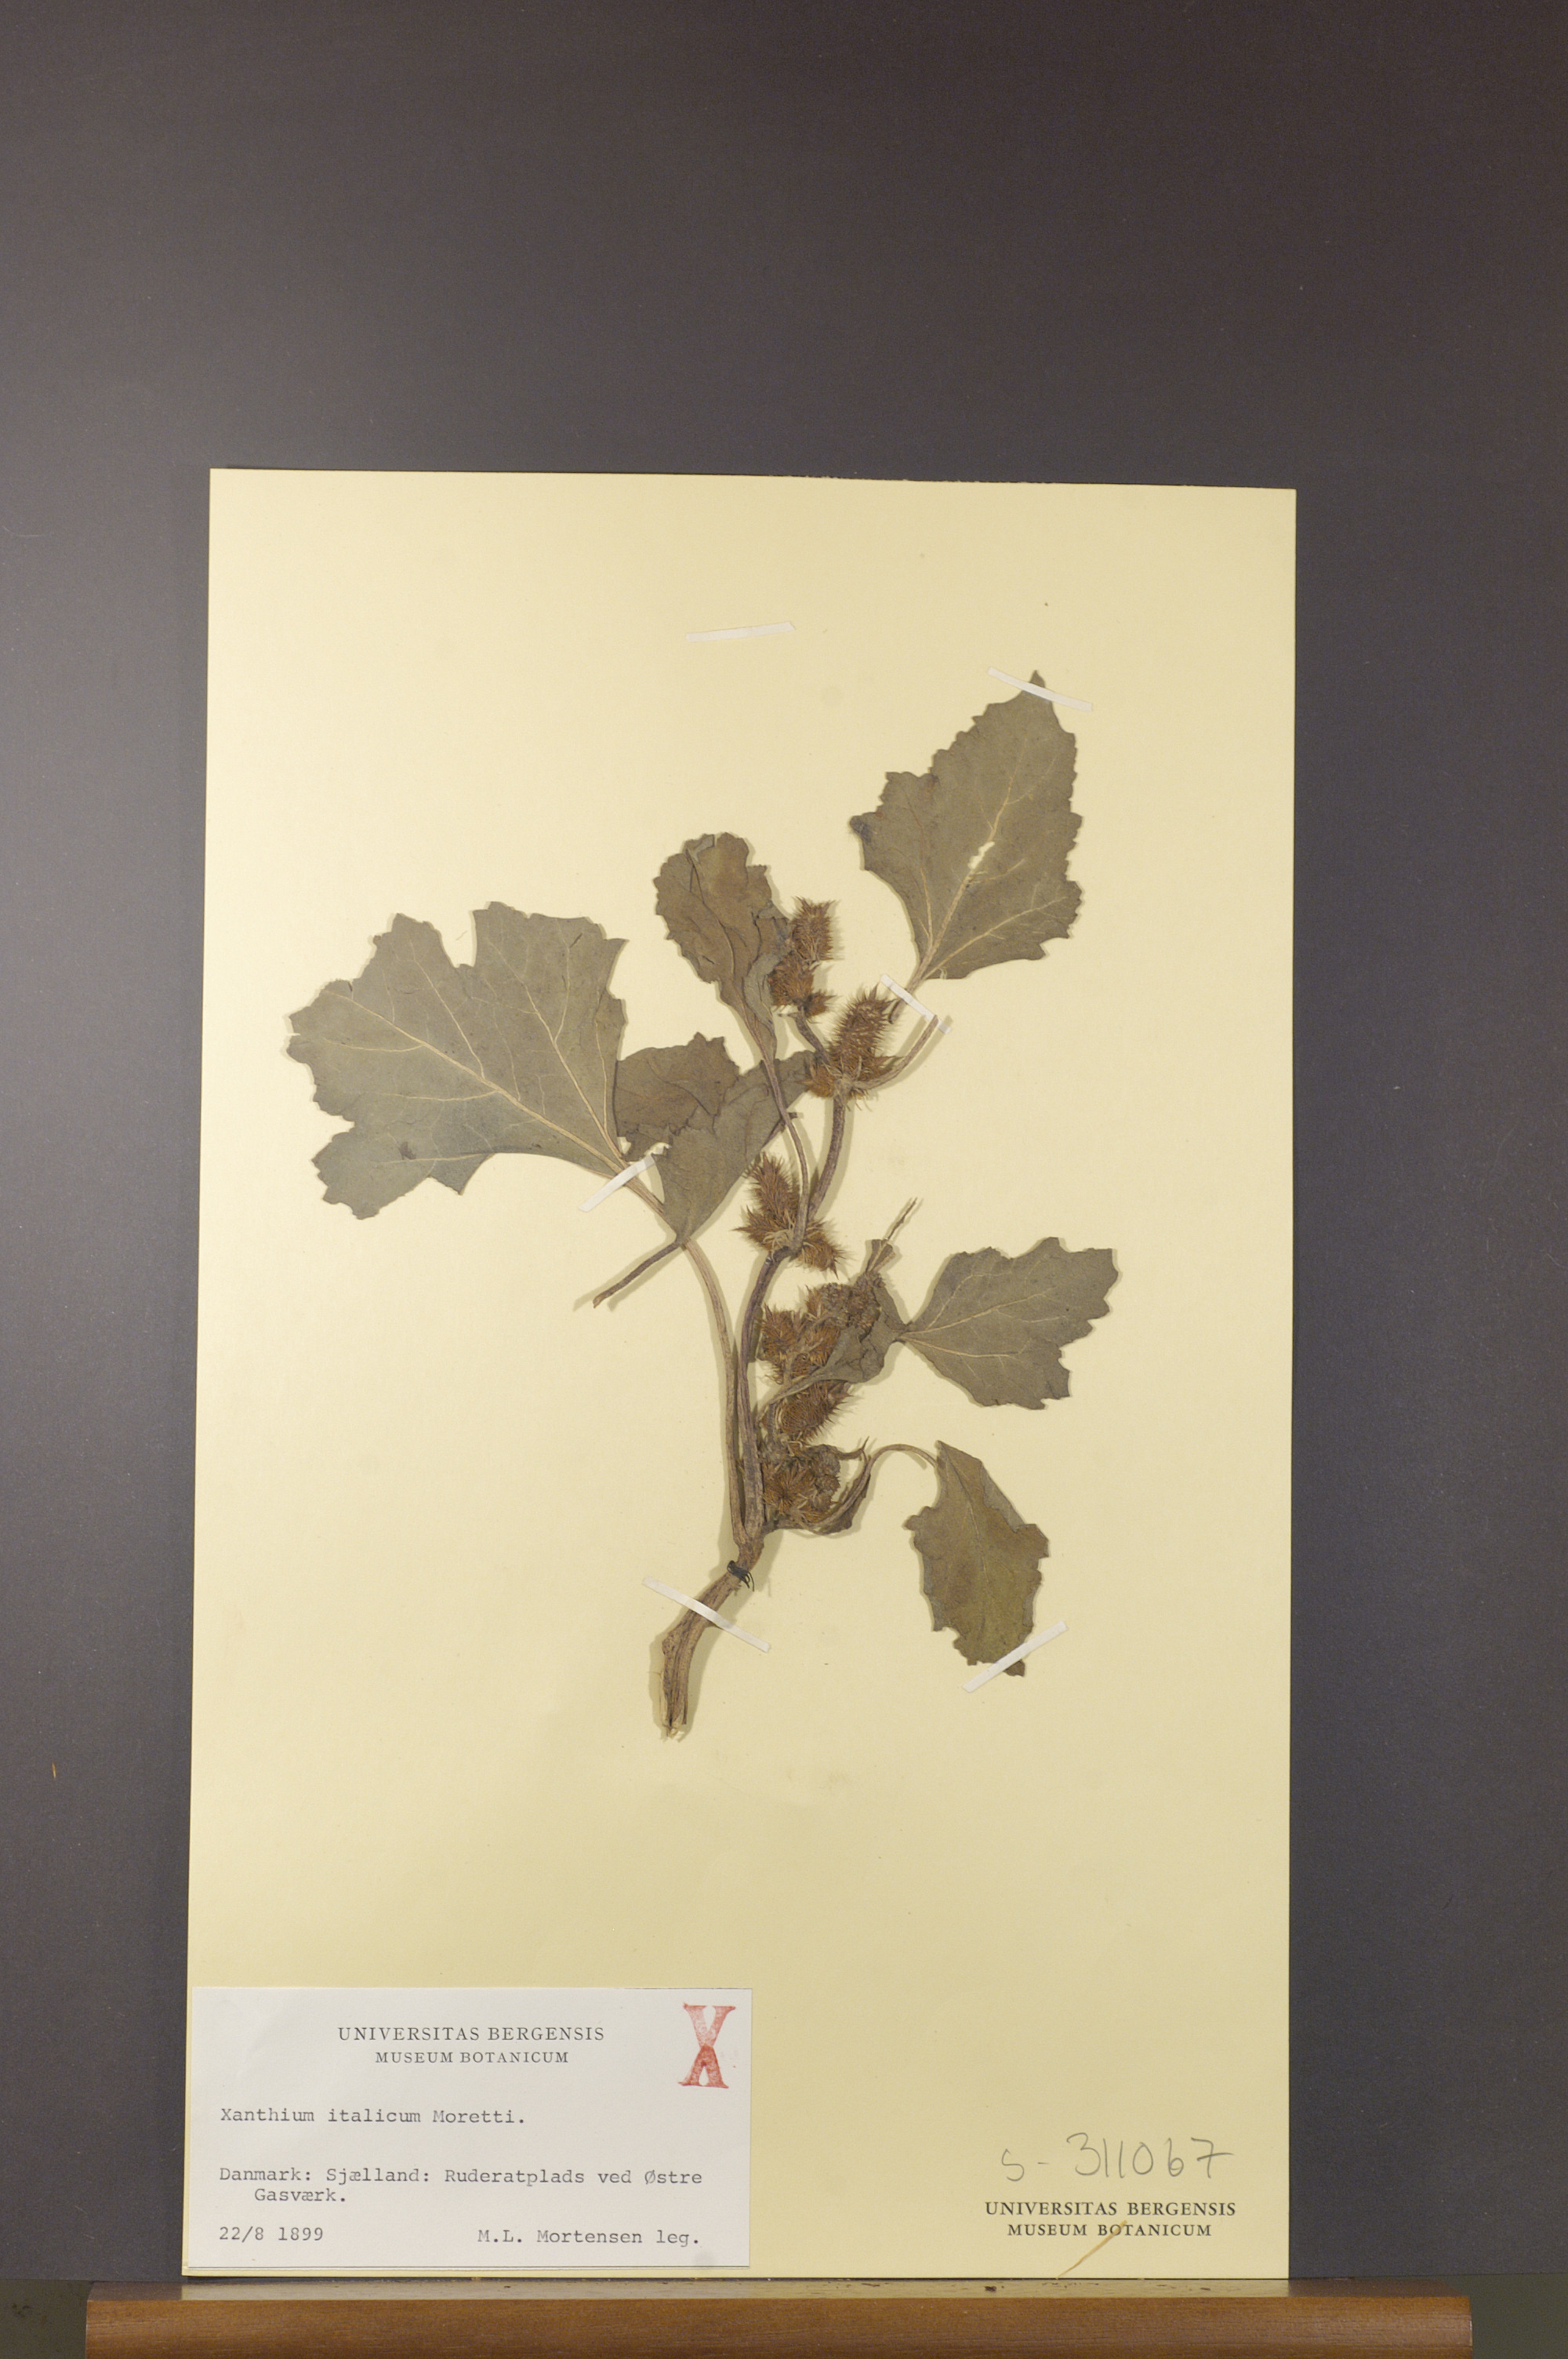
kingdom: Plantae
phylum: Tracheophyta
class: Magnoliopsida
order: Asterales
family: Asteraceae
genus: Xanthium
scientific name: Xanthium orientale
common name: Californian burr
